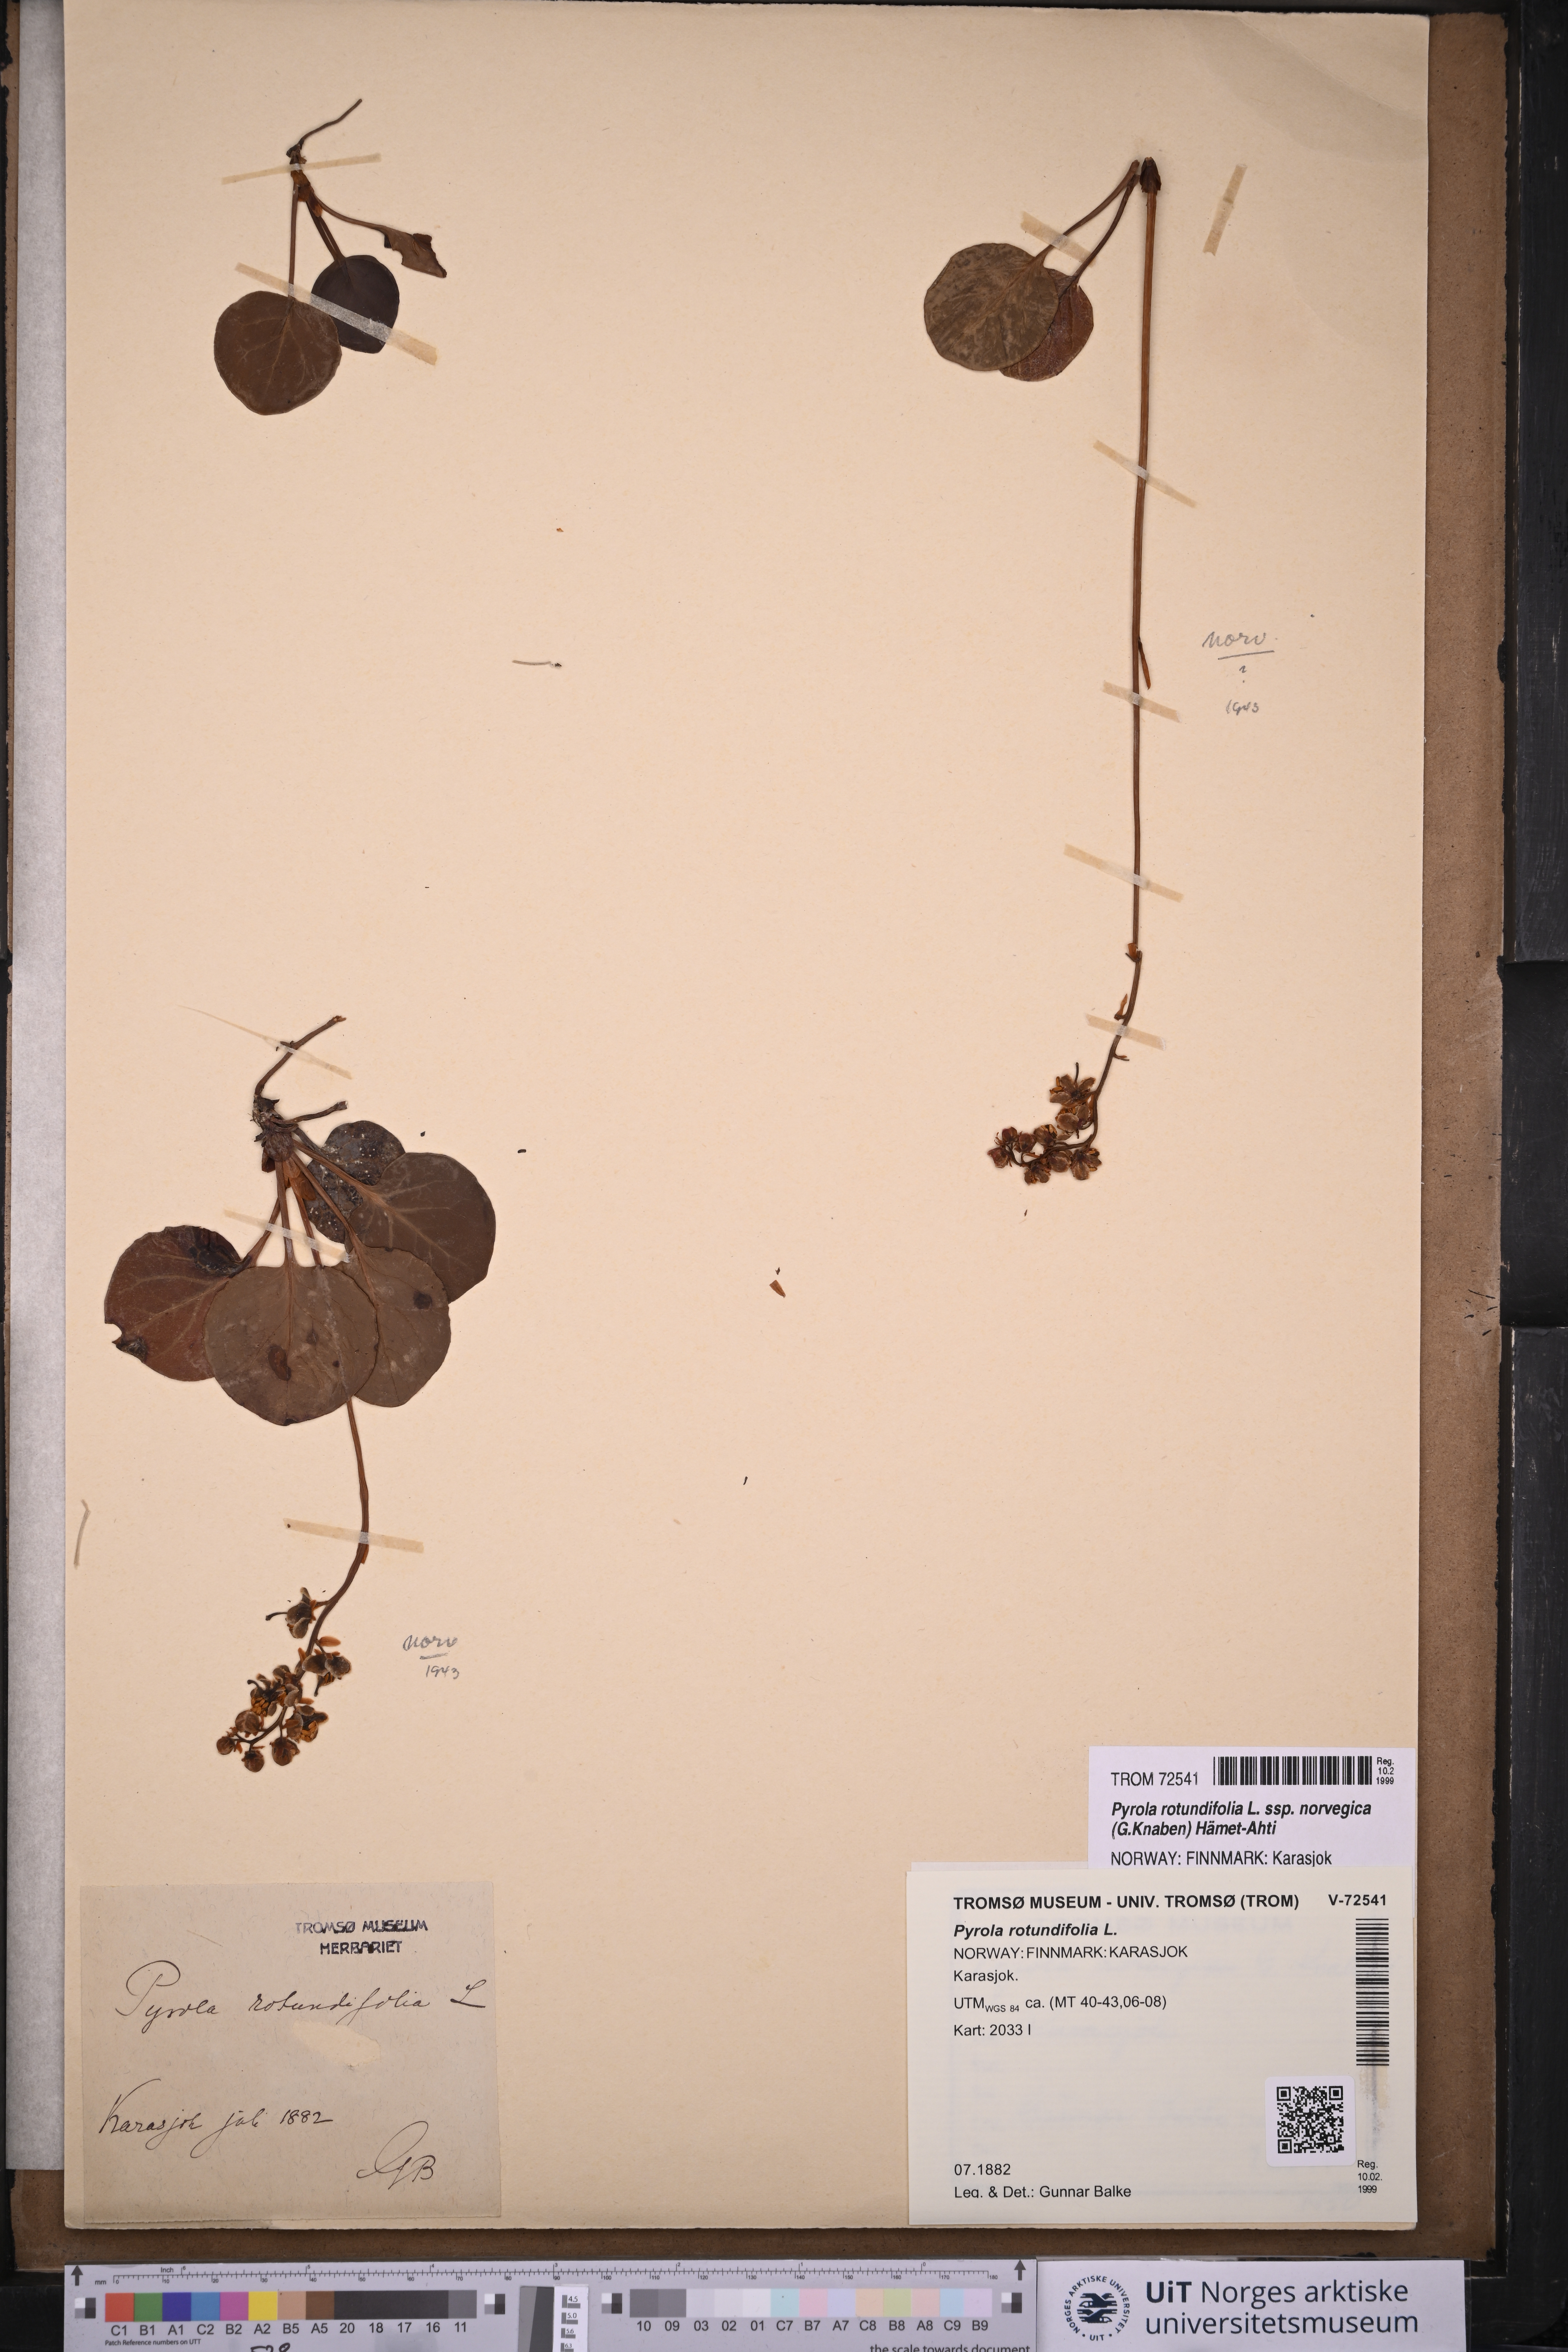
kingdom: Plantae
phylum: Tracheophyta
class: Magnoliopsida
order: Ericales
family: Ericaceae
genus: Pyrola
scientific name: Pyrola rotundifolia
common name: Round-leaved wintergreen
